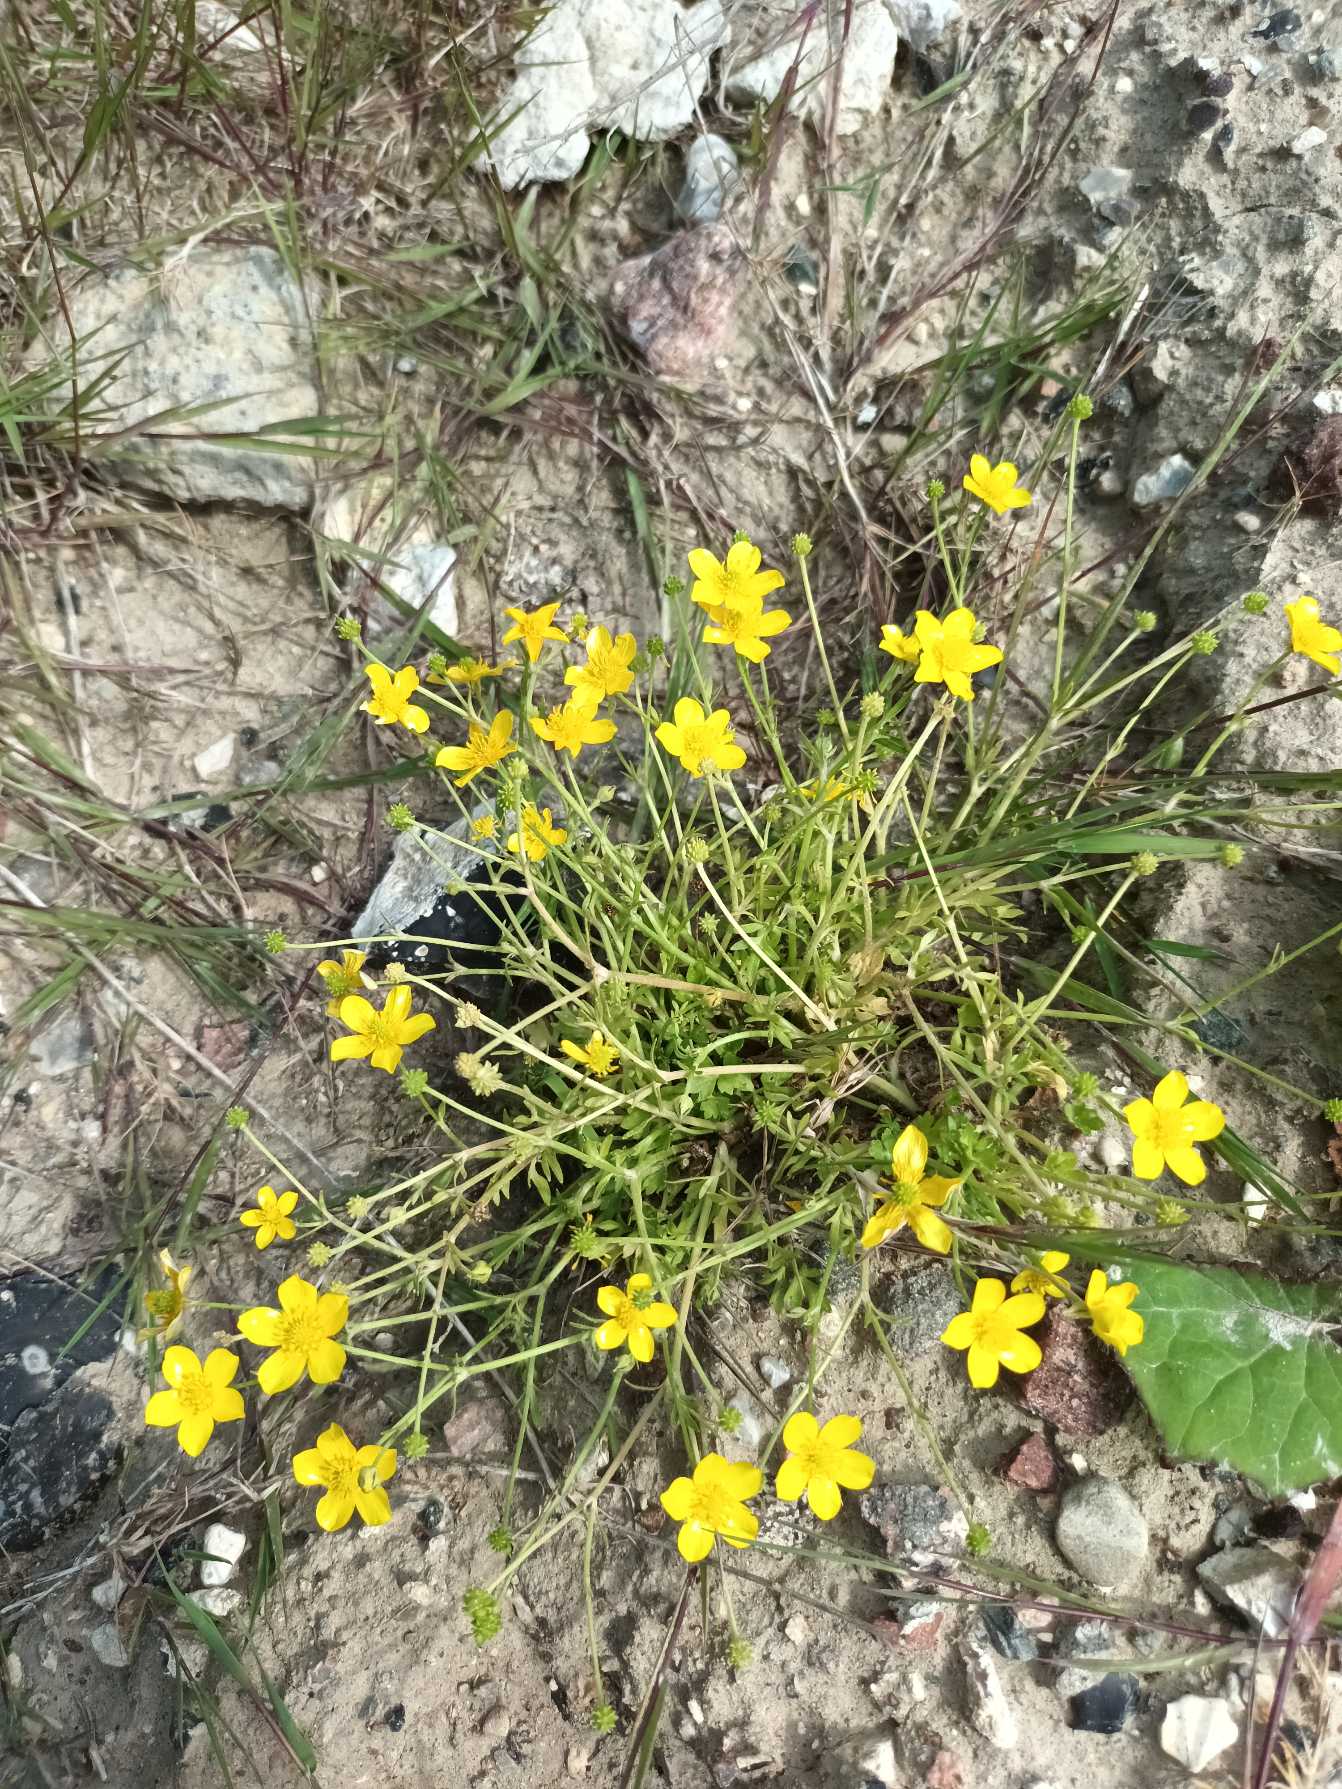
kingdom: Plantae
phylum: Tracheophyta
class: Magnoliopsida
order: Ranunculales
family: Ranunculaceae
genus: Ranunculus
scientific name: Ranunculus sardous
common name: Stivhåret ranunkel
